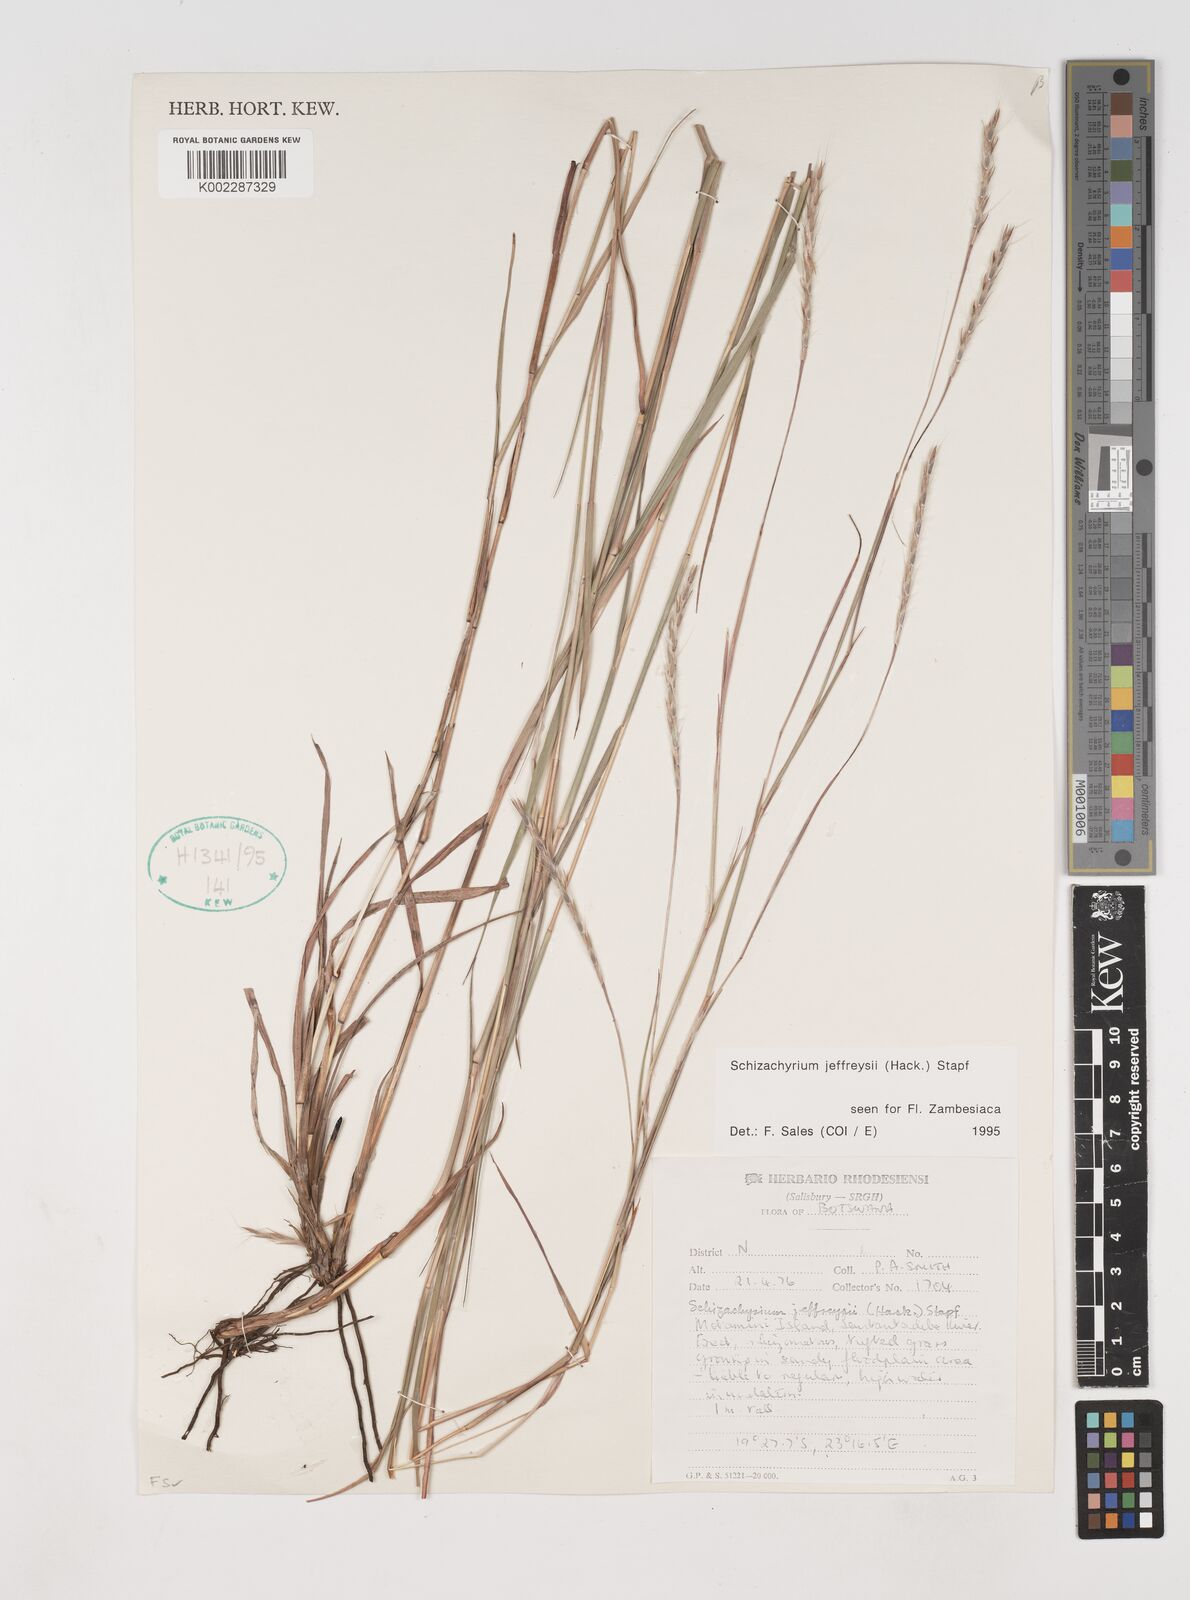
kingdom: Plantae
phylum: Tracheophyta
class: Liliopsida
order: Poales
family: Poaceae
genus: Schizachyrium
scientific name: Schizachyrium jeffreysii
